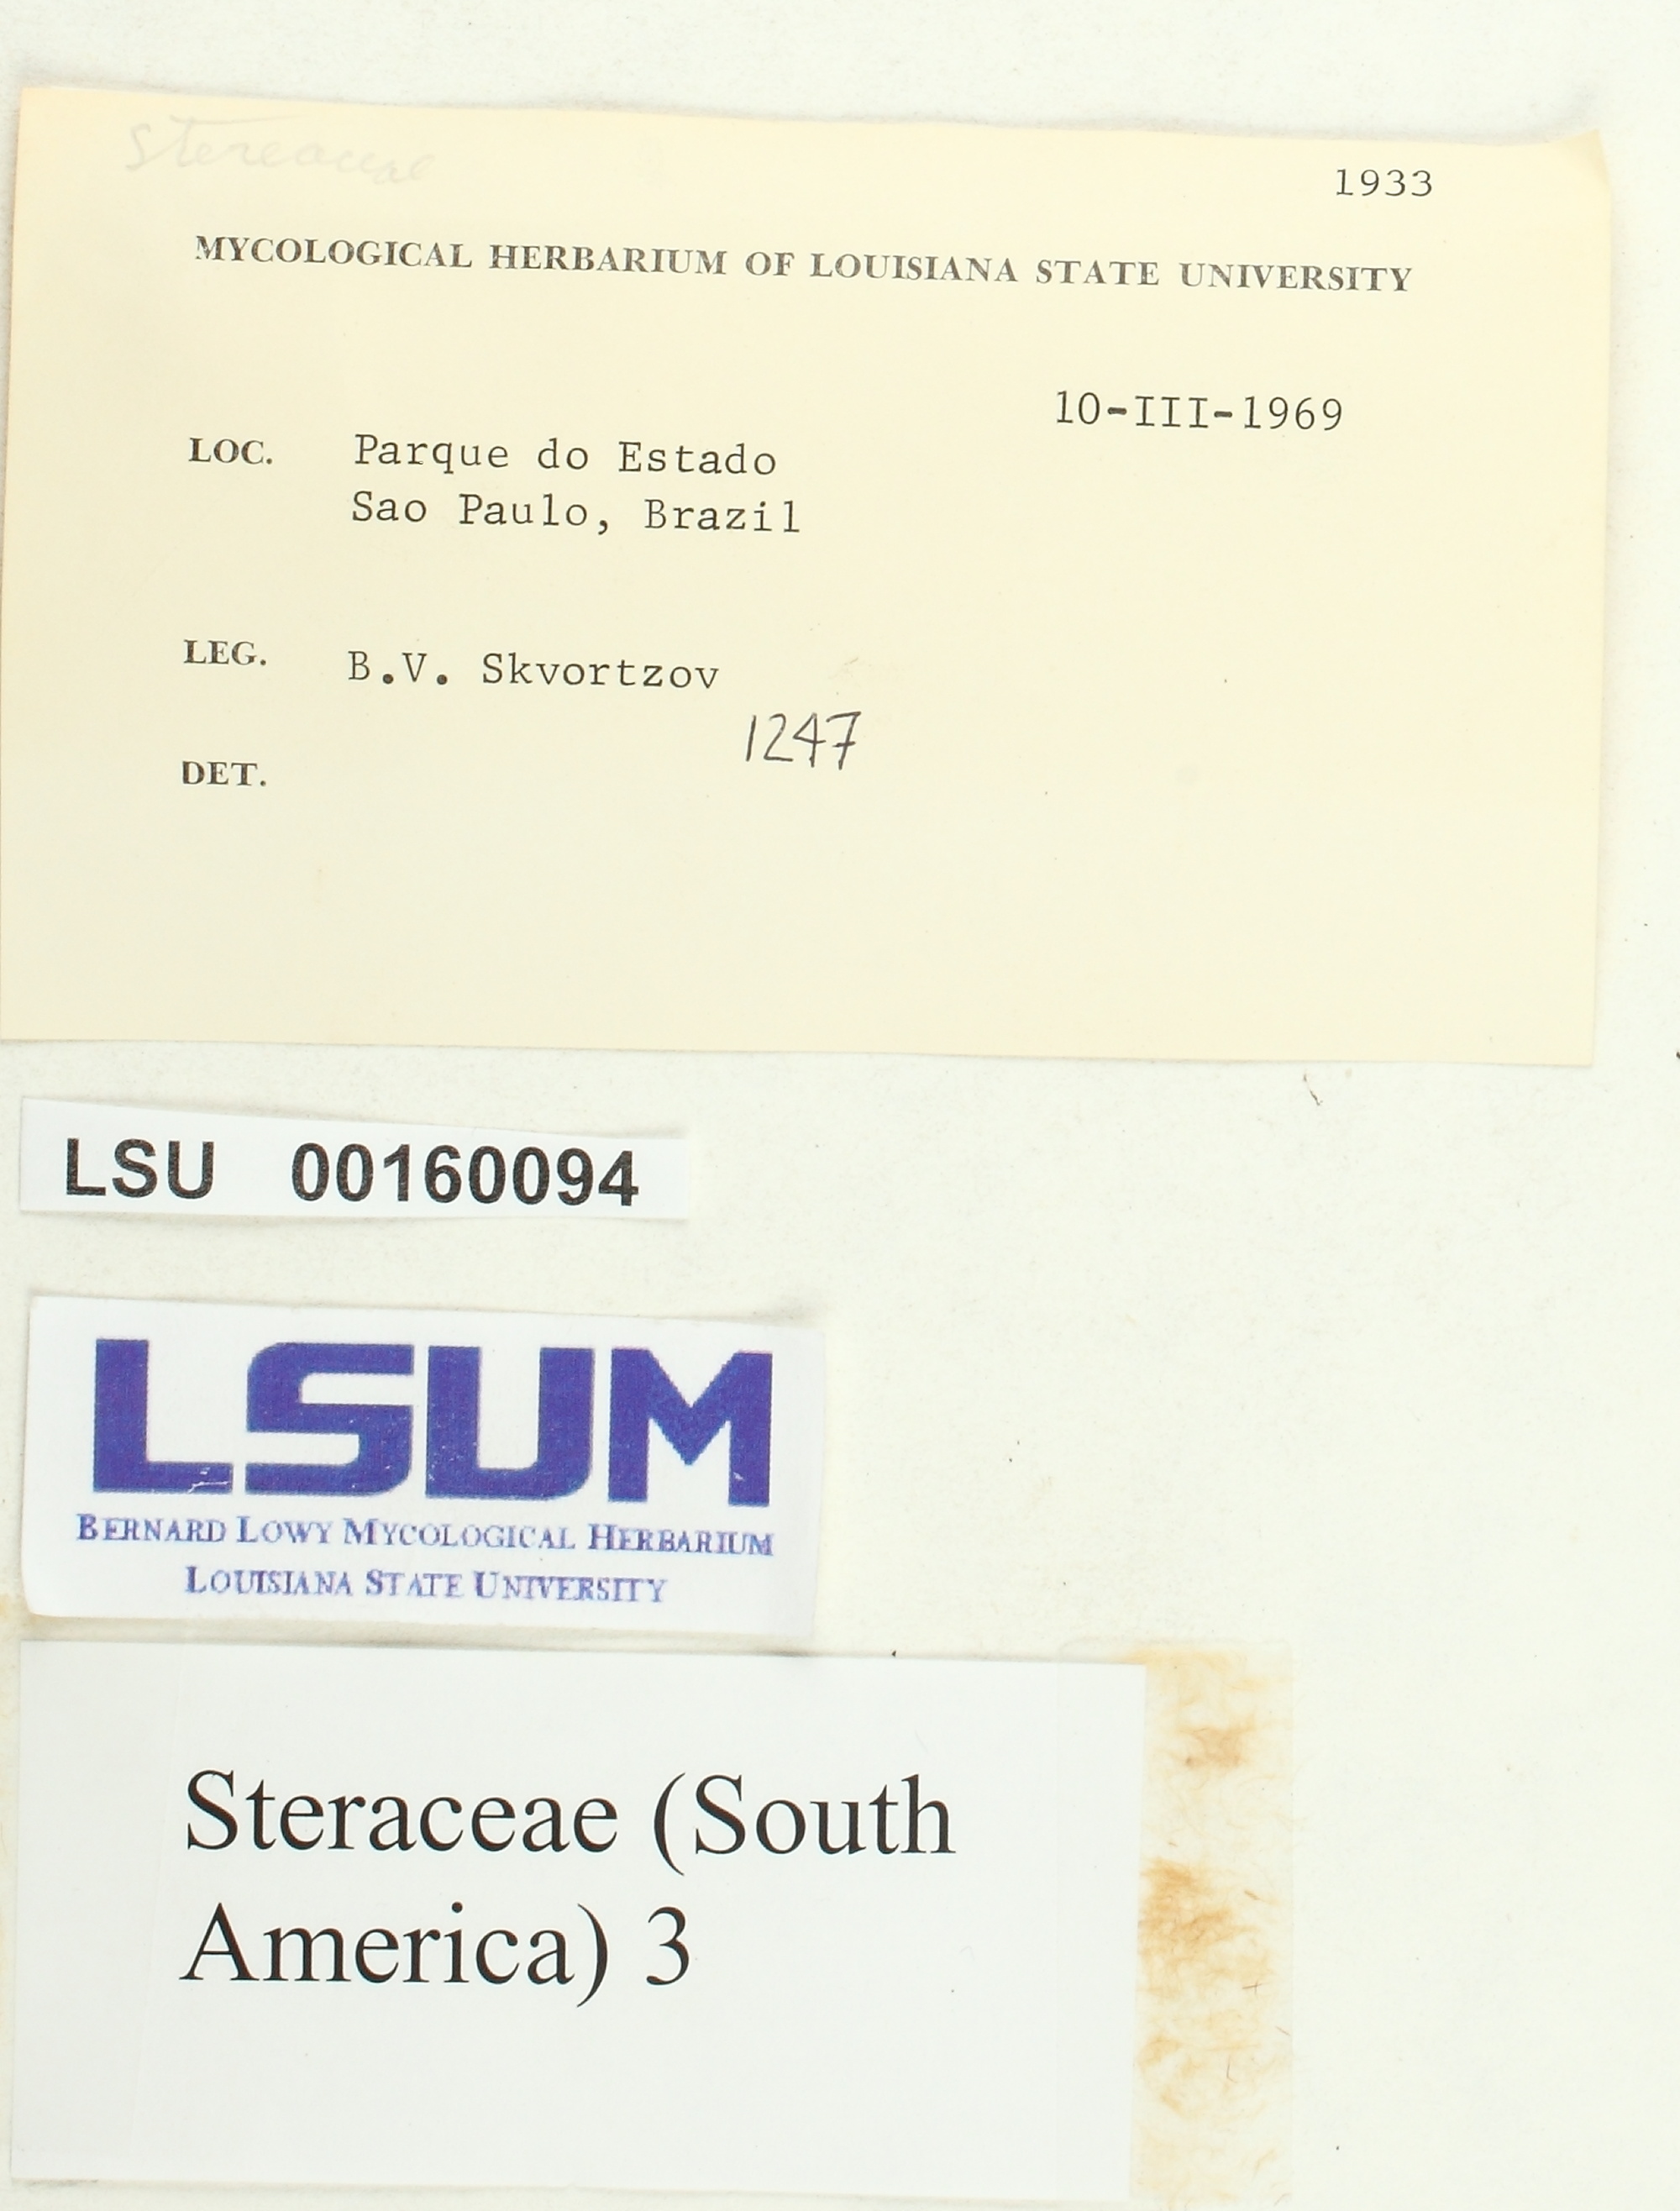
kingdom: Fungi
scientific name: Fungi
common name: Fungi
